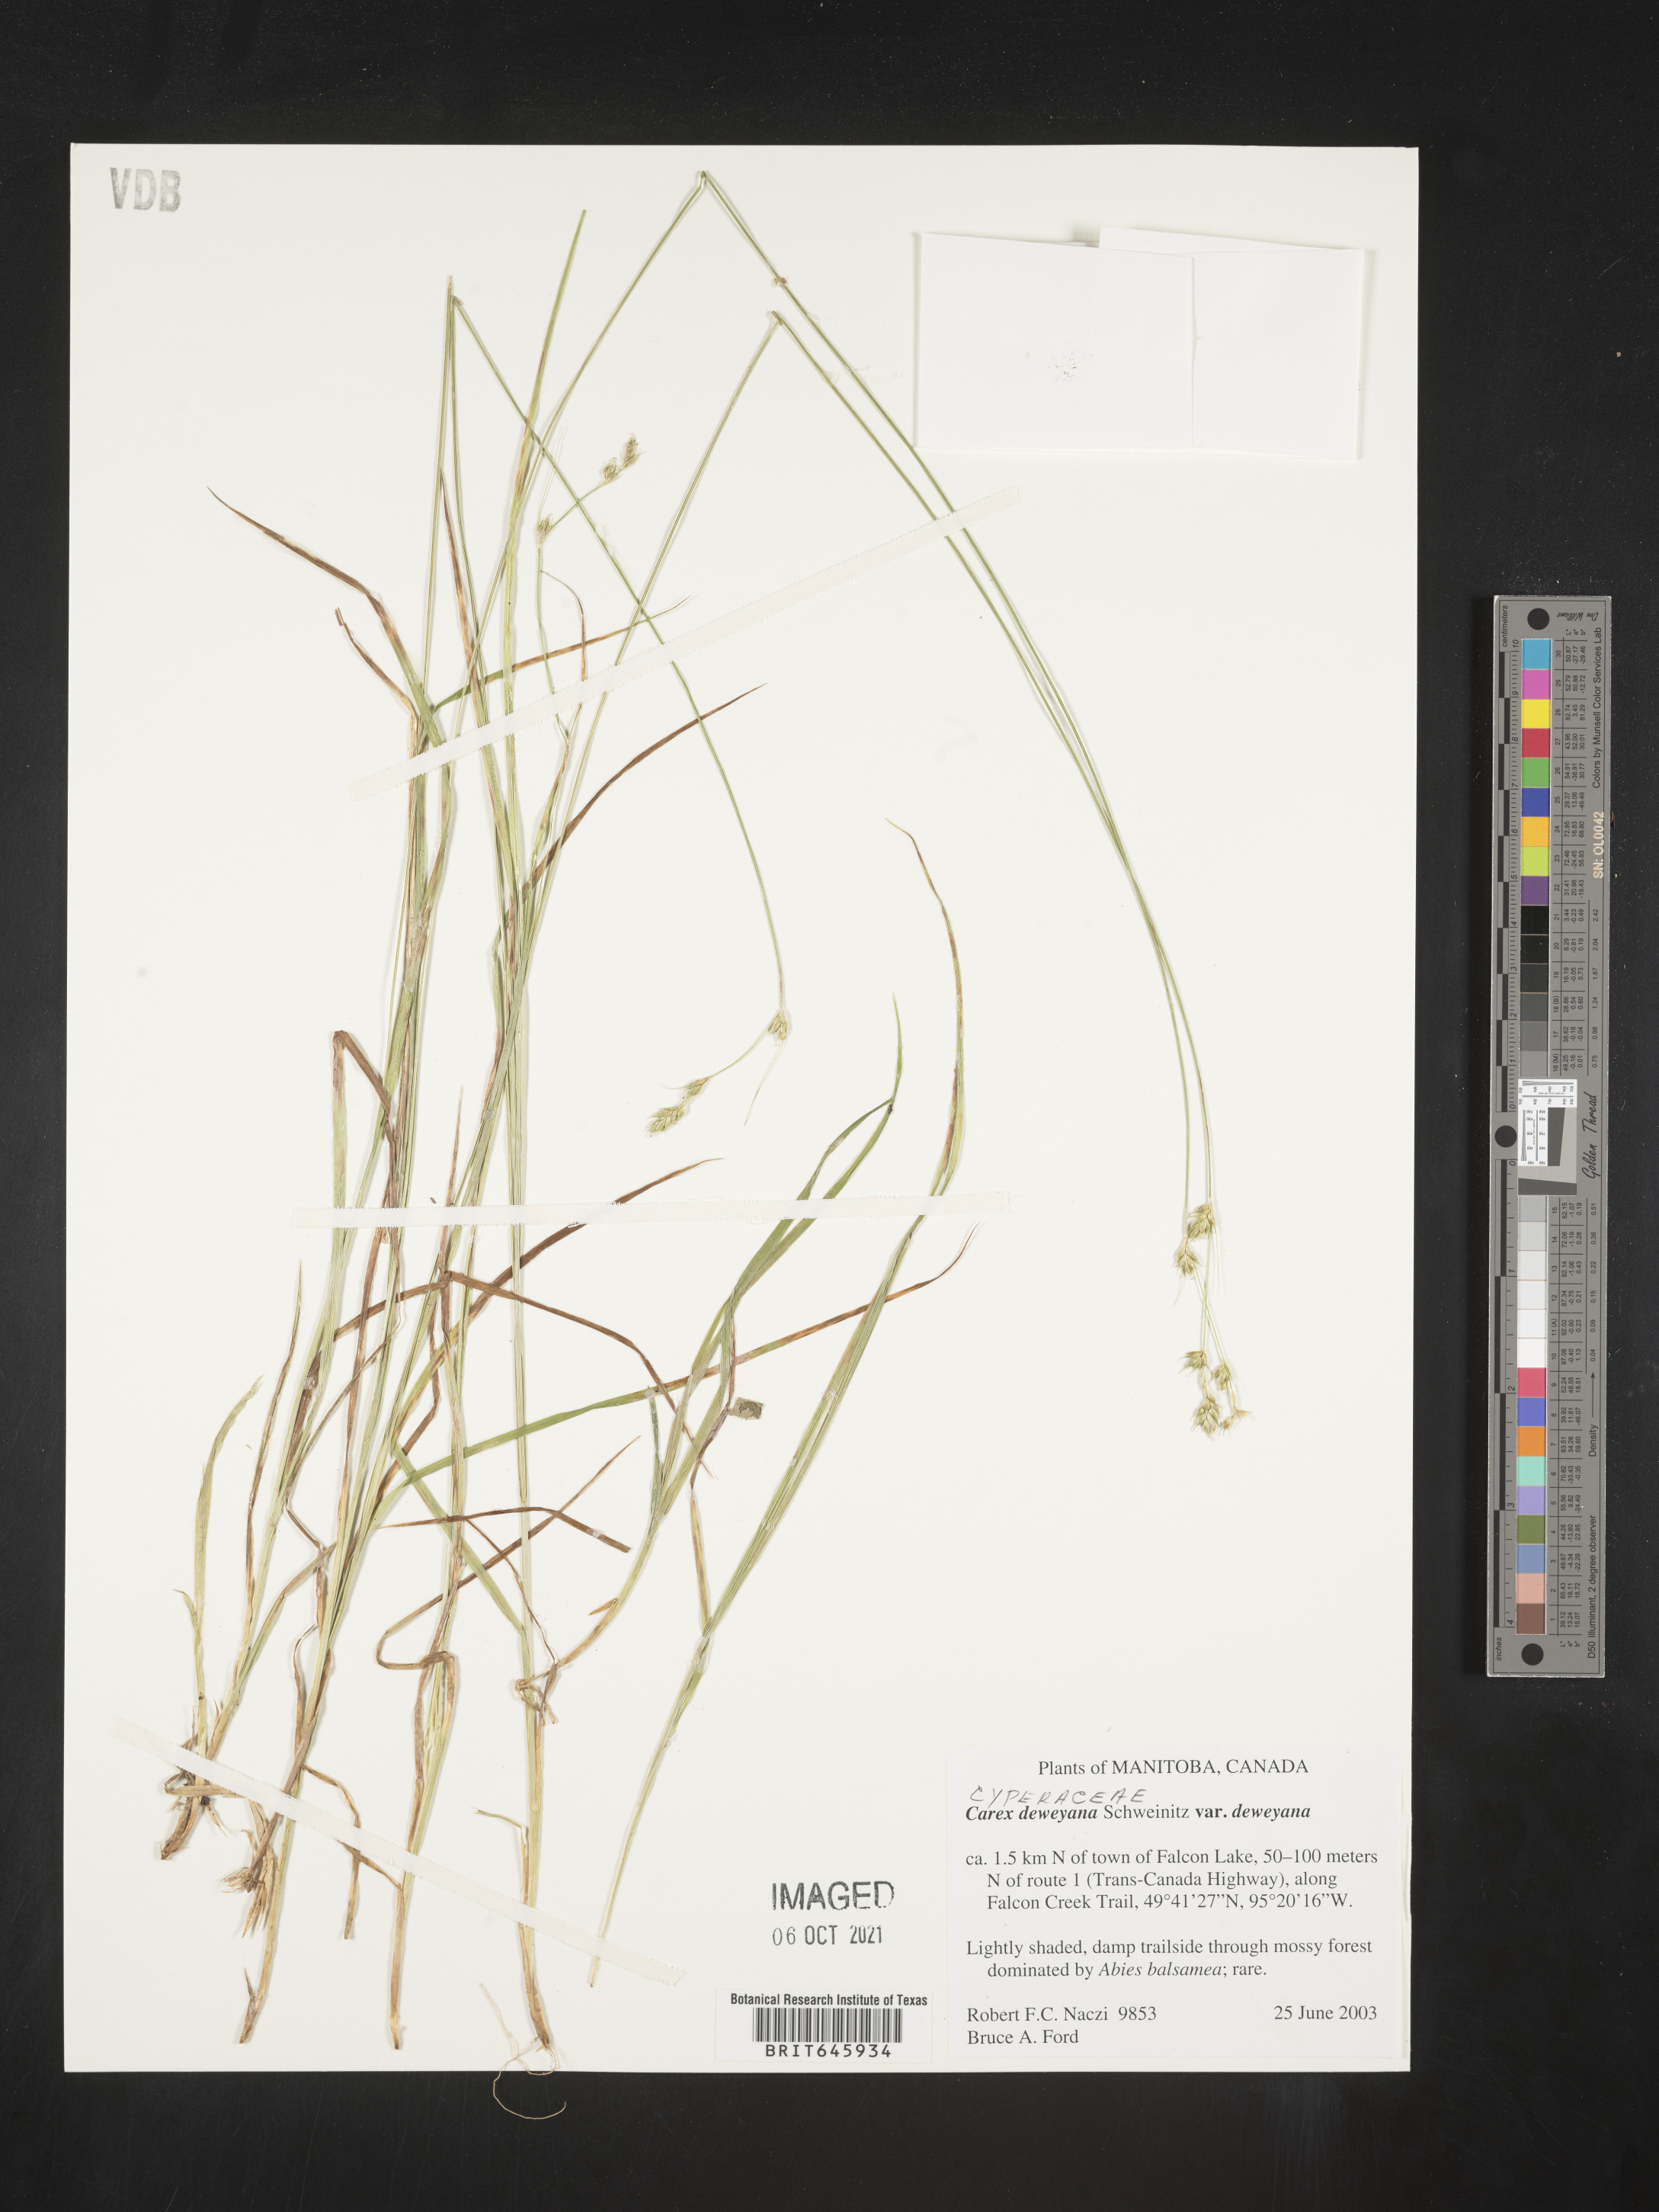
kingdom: Plantae
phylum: Tracheophyta
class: Liliopsida
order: Poales
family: Cyperaceae
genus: Carex
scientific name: Carex deweyana
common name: Dewey's sedge
